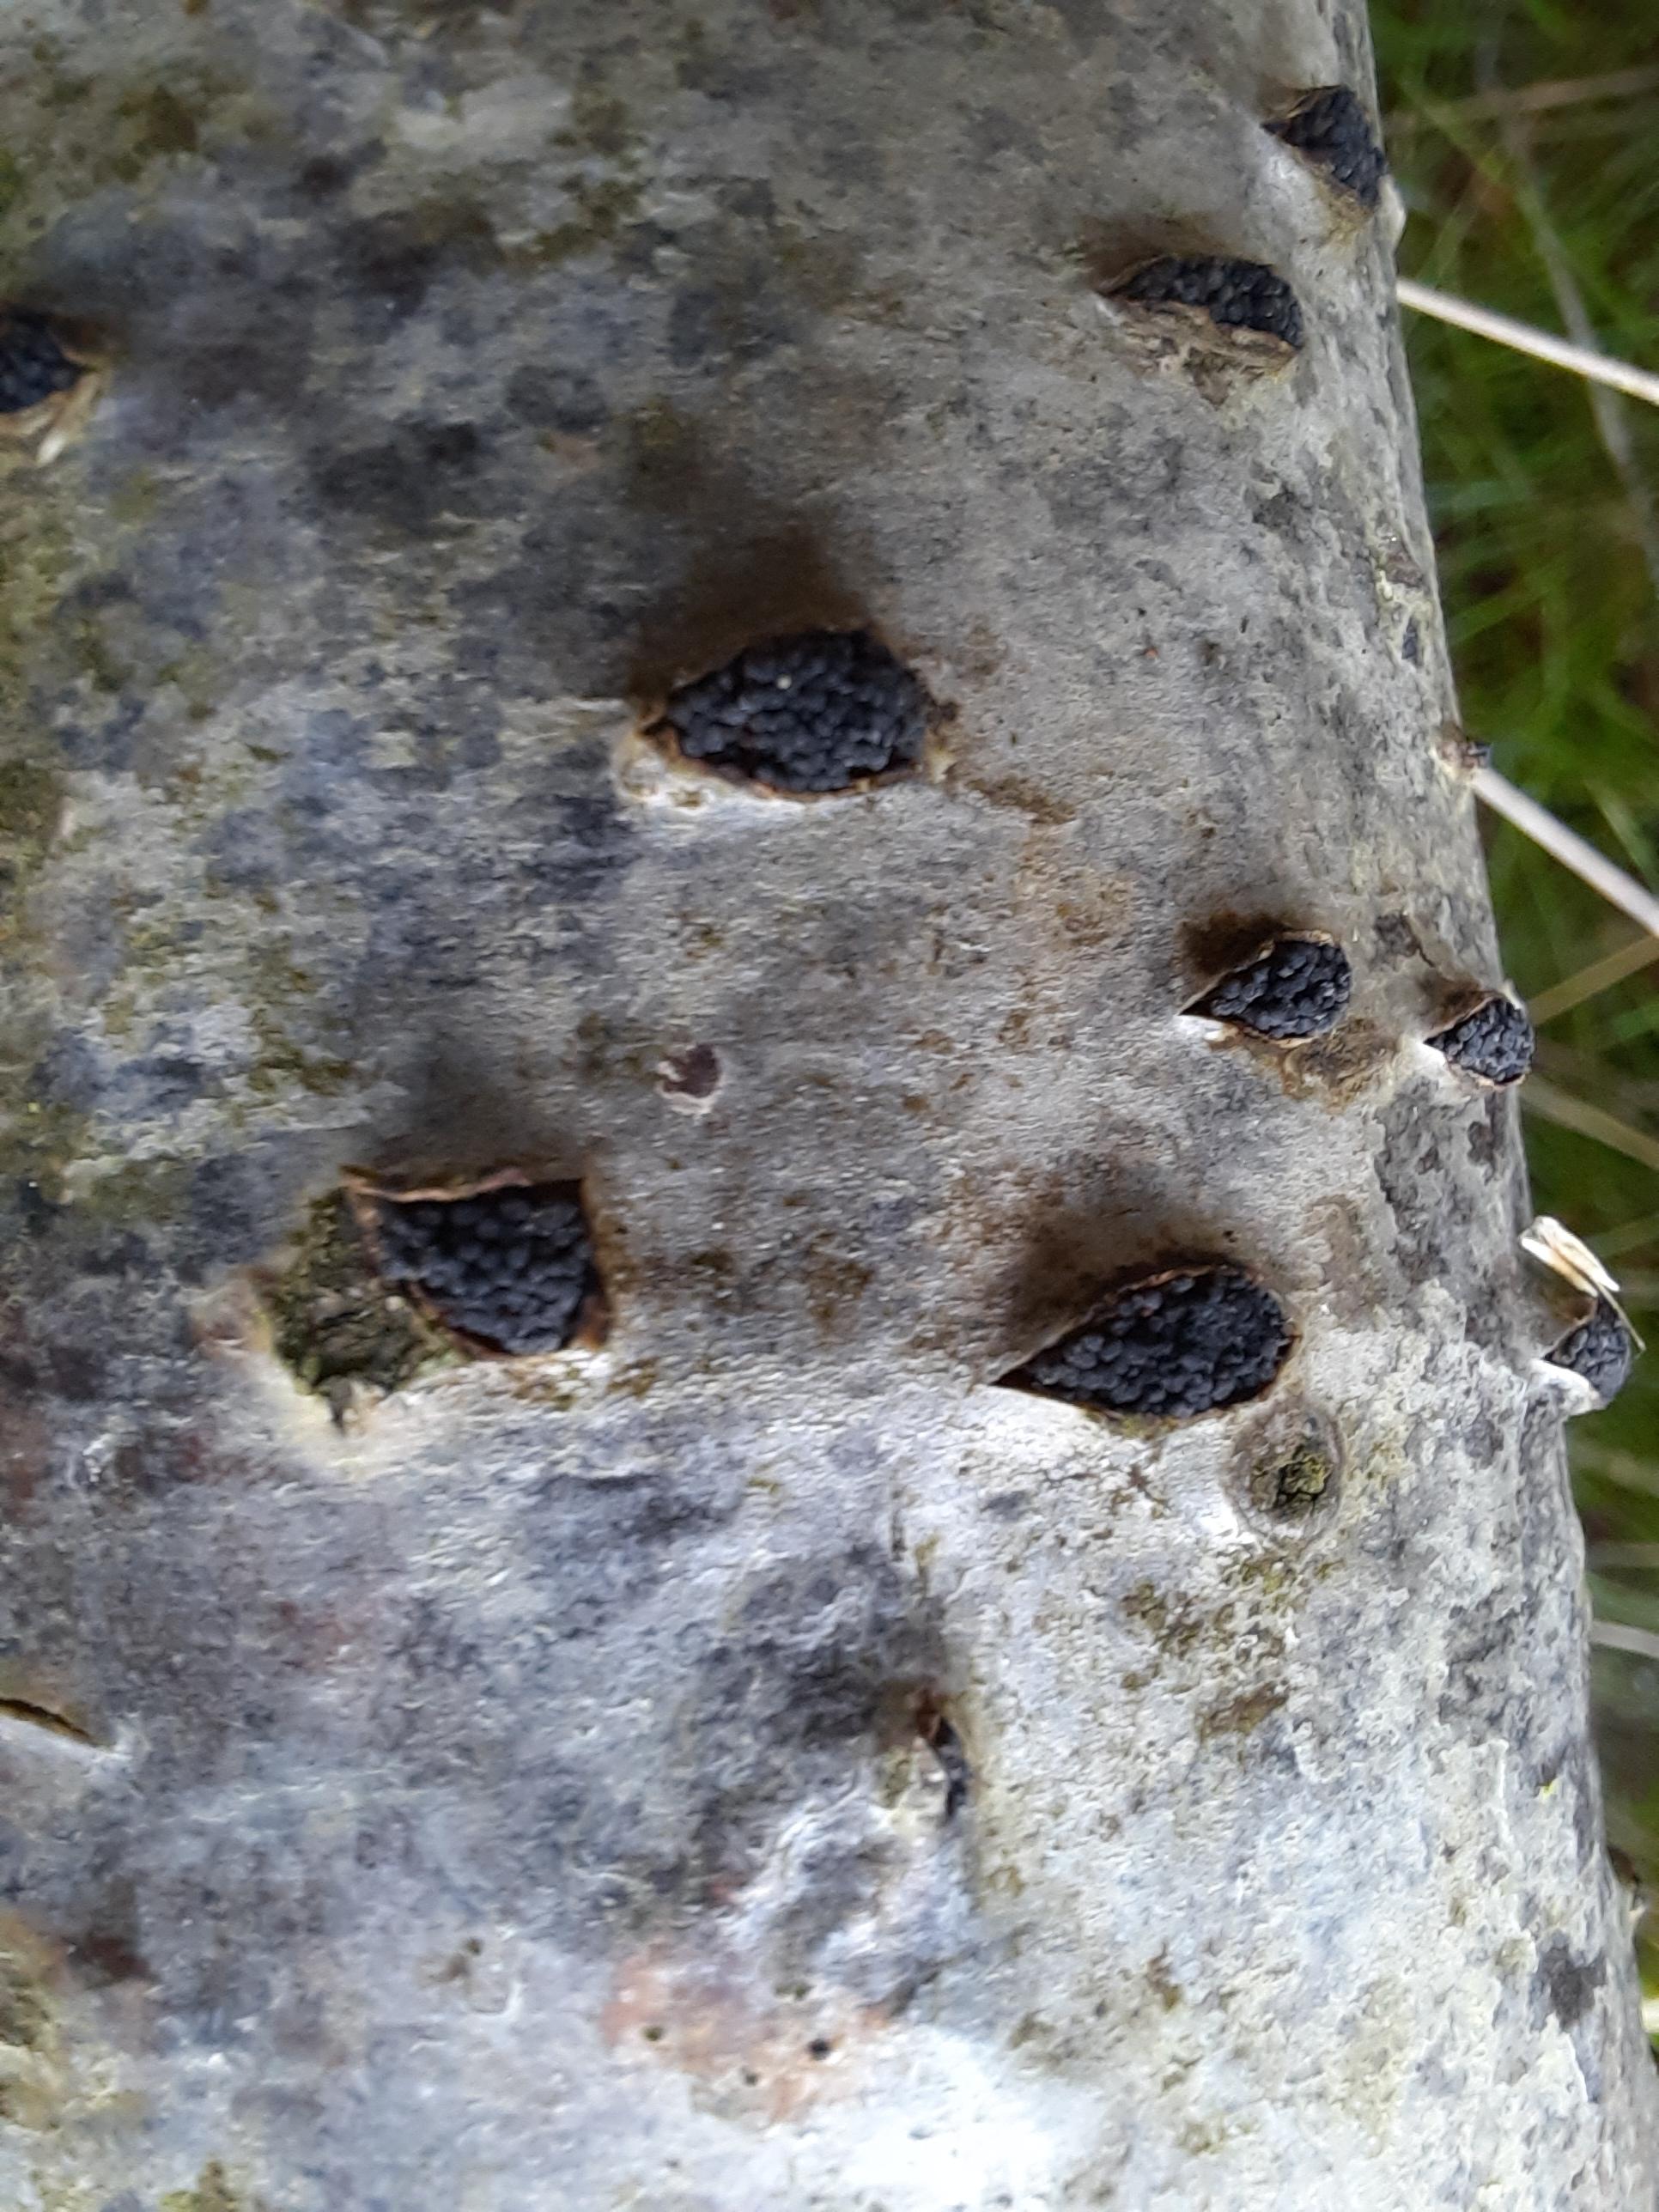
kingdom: Fungi
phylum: Ascomycota
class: Sordariomycetes
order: Xylariales
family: Diatrypaceae
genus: Eutypella
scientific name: Eutypella sorbi
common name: rønne-kulskorpe
